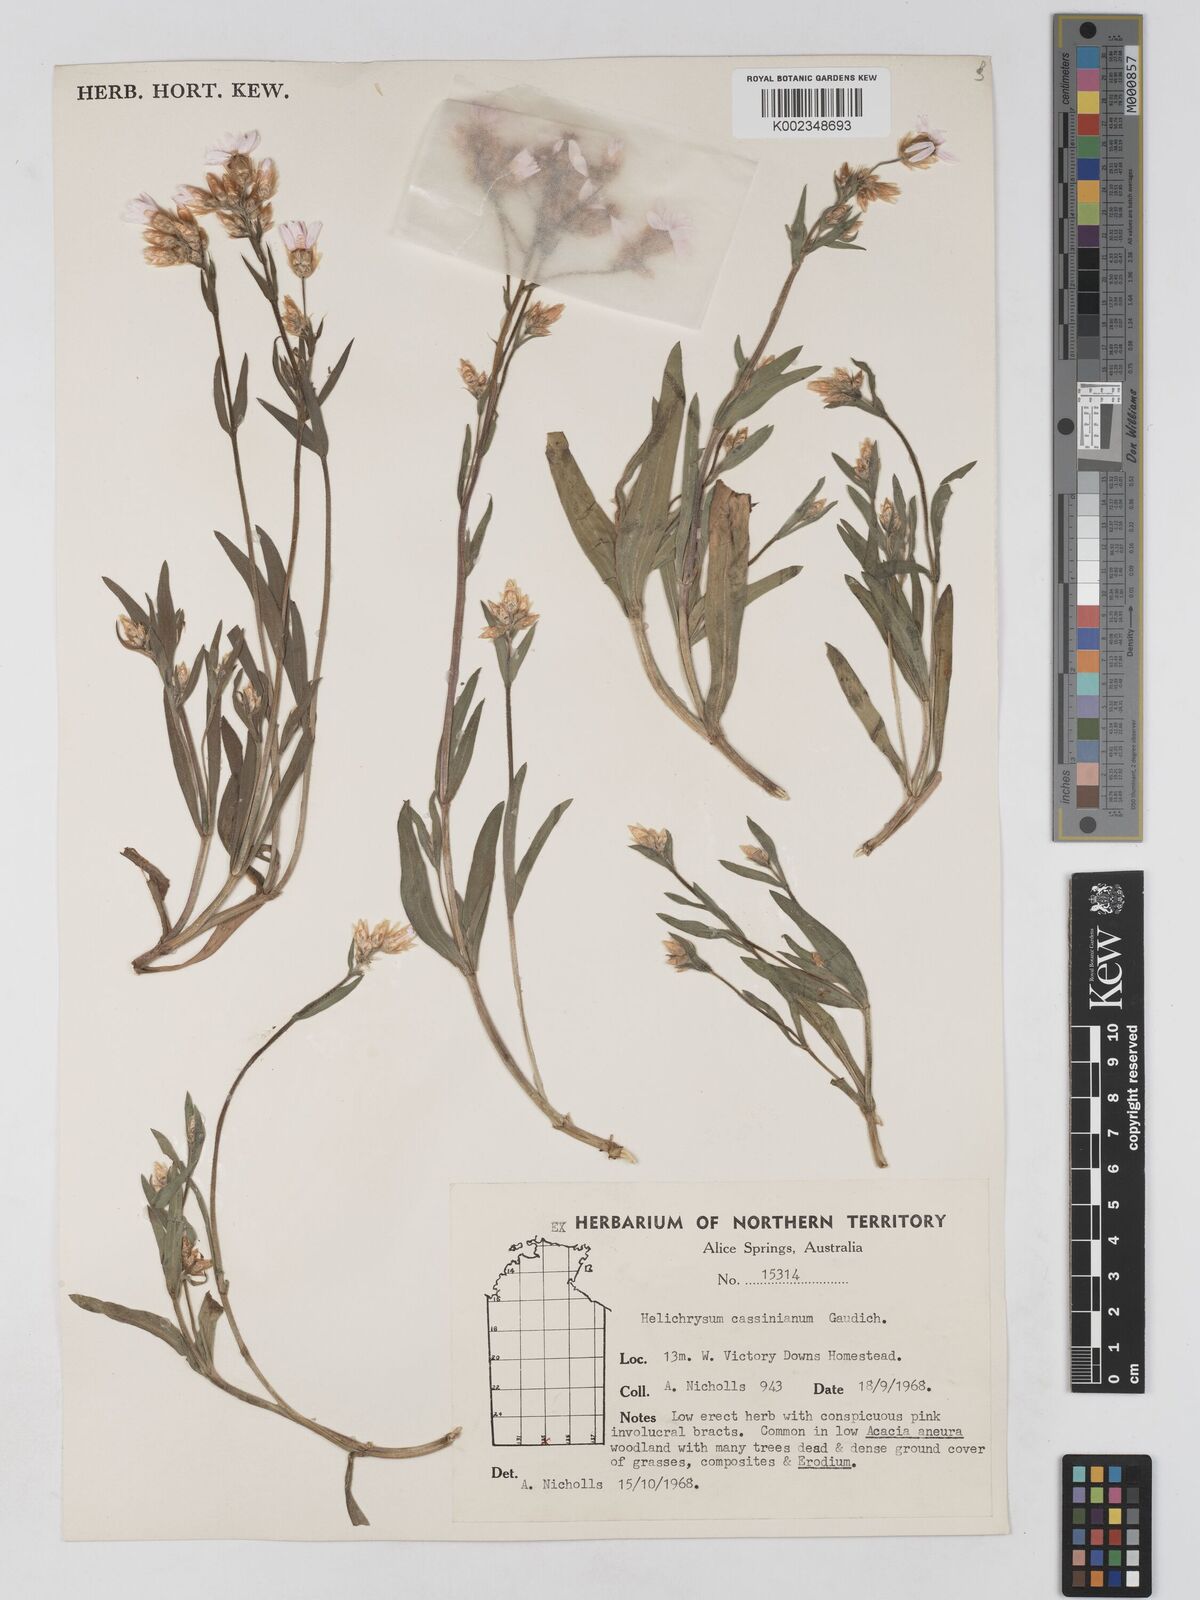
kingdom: Plantae
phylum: Tracheophyta
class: Magnoliopsida
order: Asterales
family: Asteraceae
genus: Schoenia
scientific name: Schoenia cassiniana
